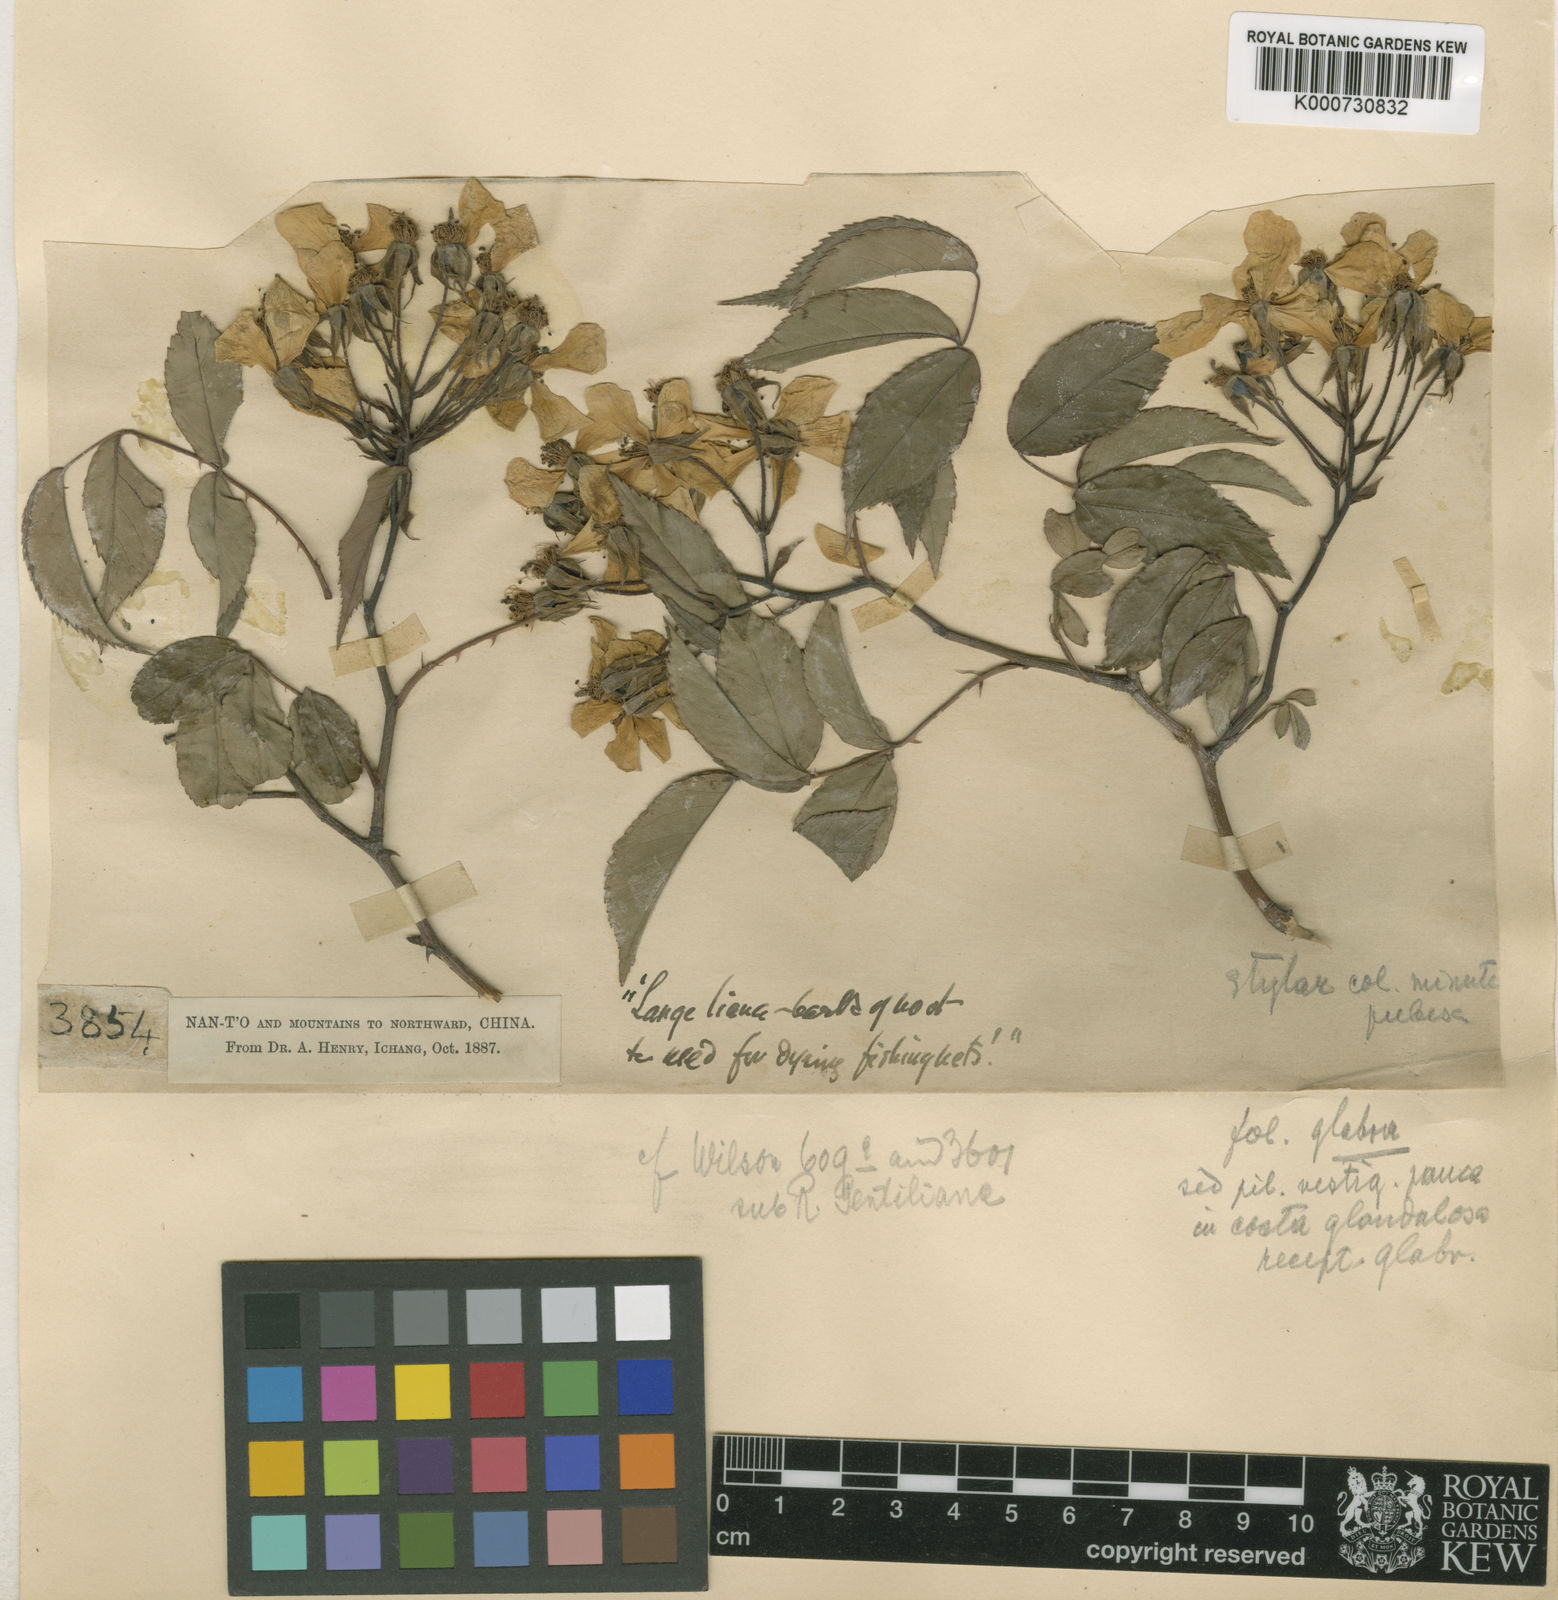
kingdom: Plantae
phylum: Tracheophyta
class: Magnoliopsida
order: Rosales
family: Rosaceae
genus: Rosa
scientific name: Rosa henryi
